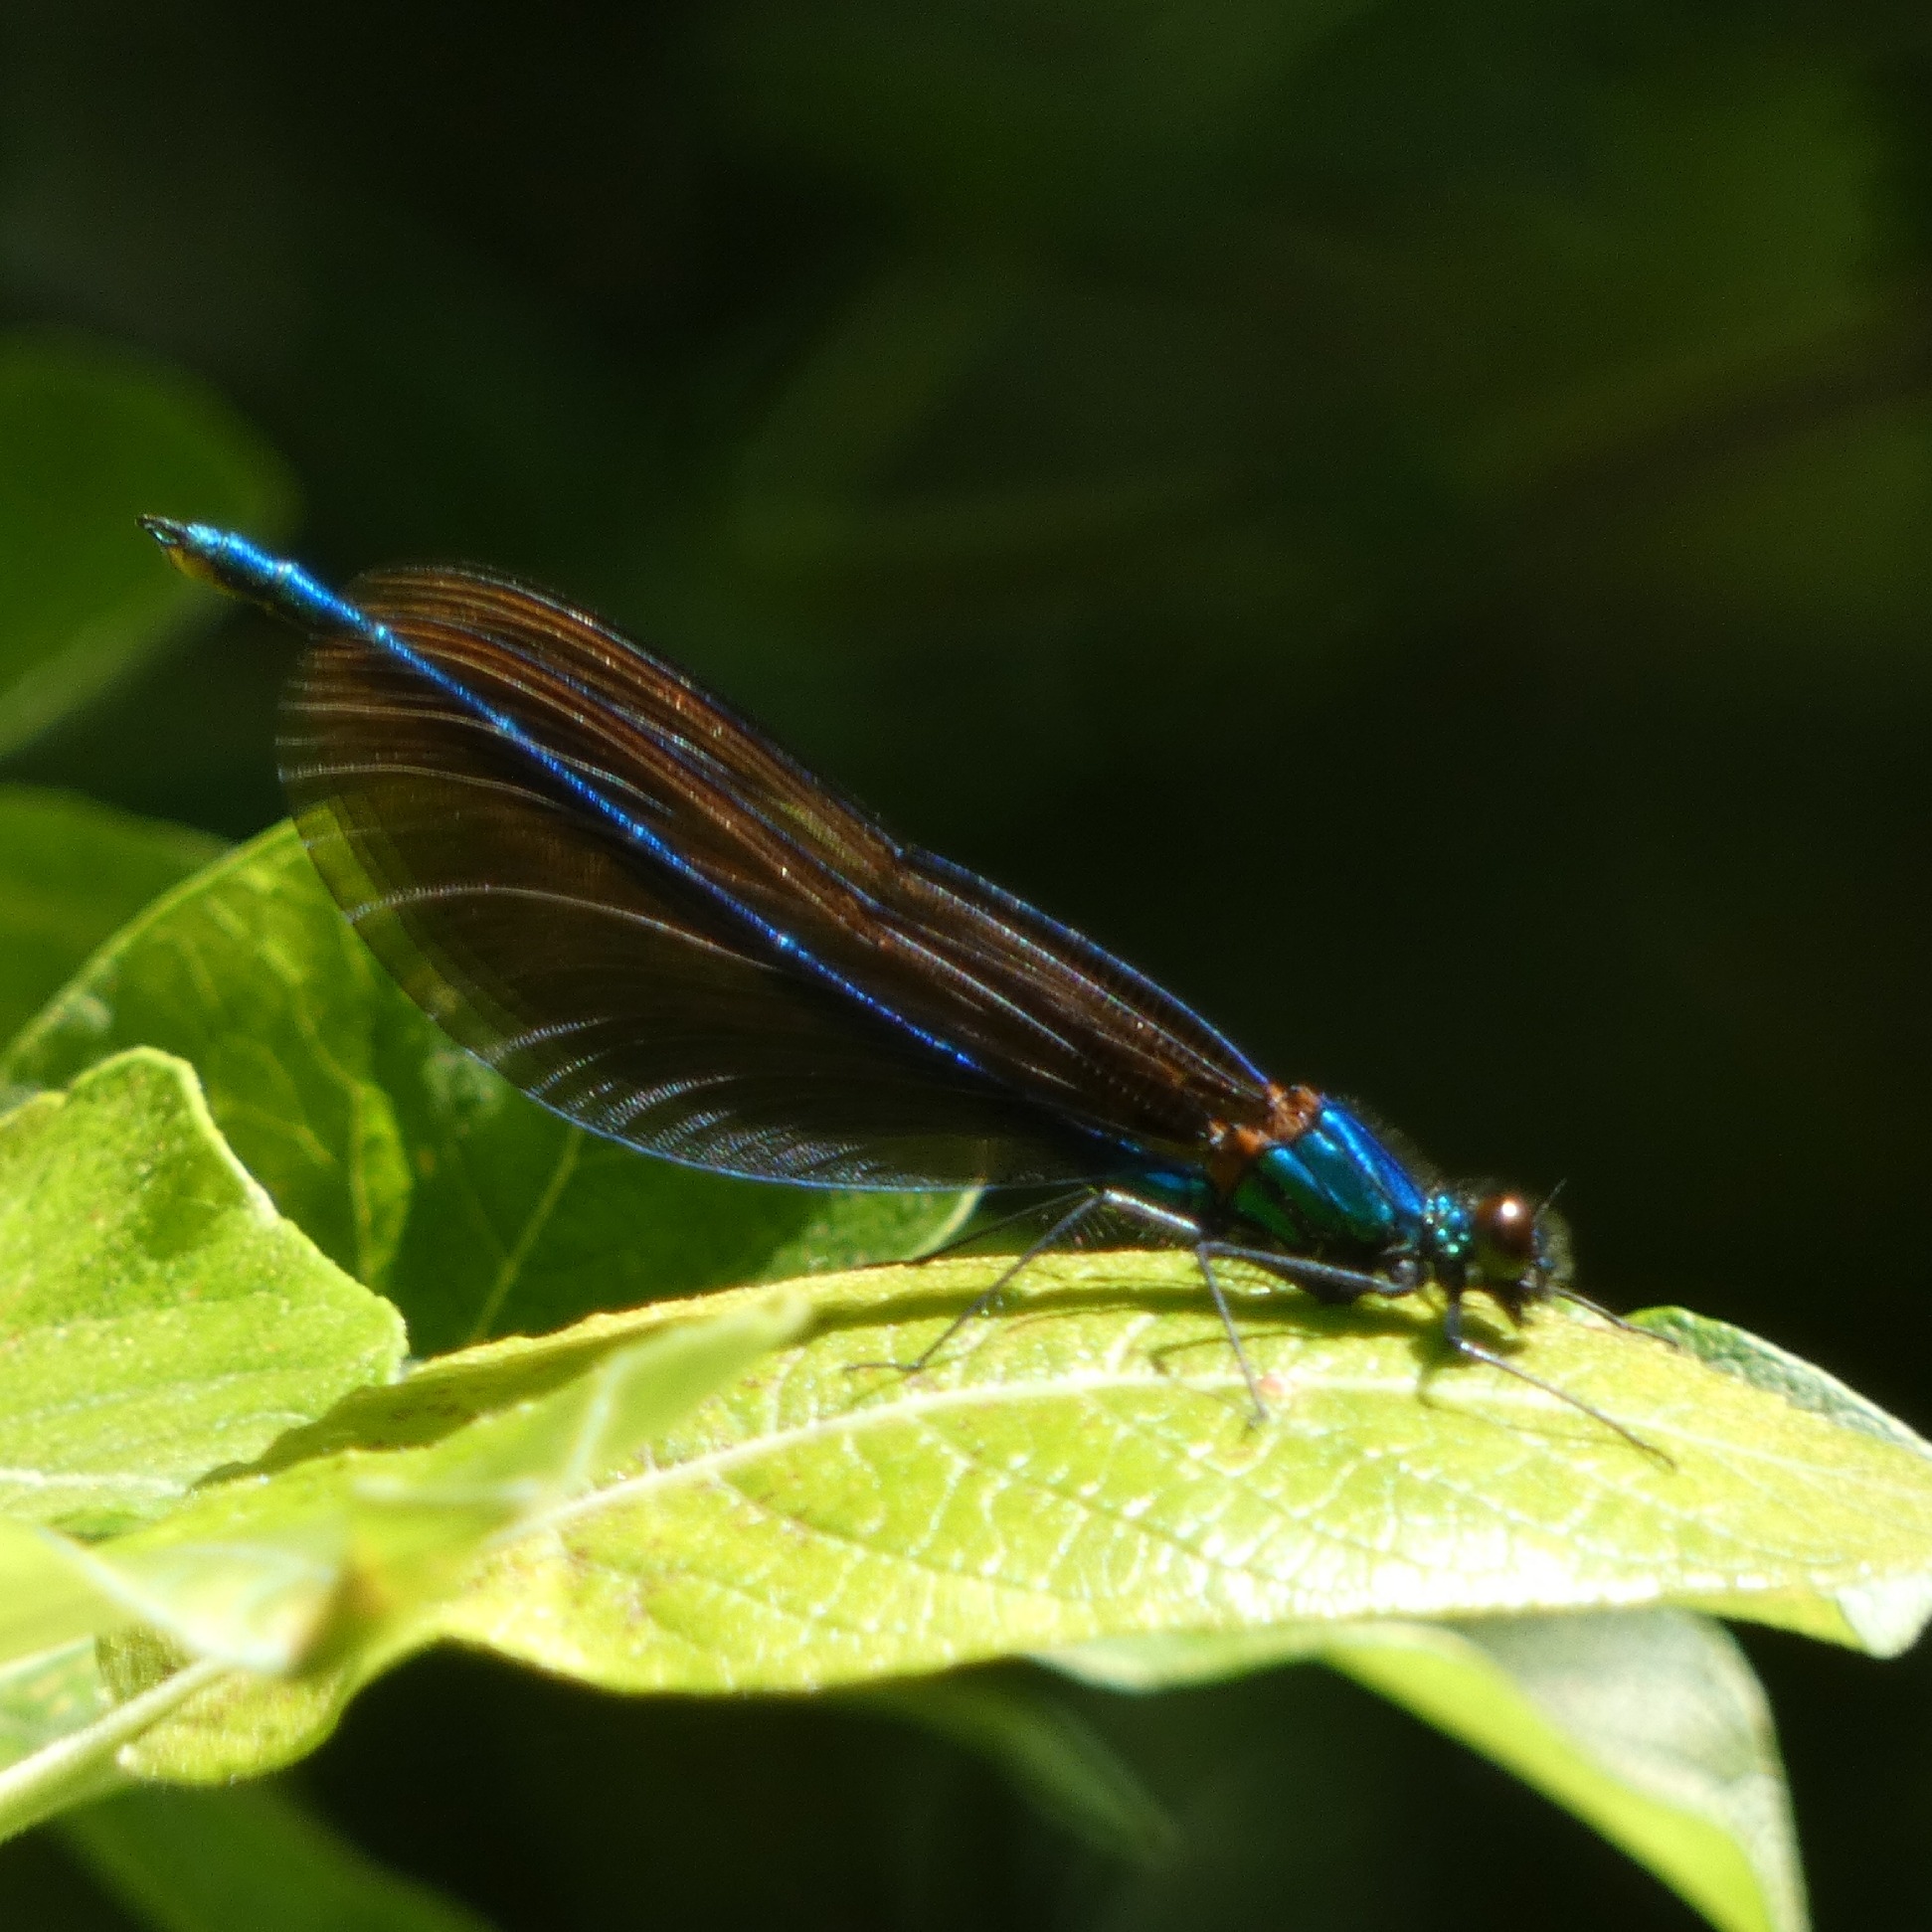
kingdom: Animalia
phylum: Arthropoda
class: Insecta
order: Odonata
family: Calopterygidae
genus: Calopteryx
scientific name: Calopteryx virgo
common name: Blåvinget pragtvandnymfe
